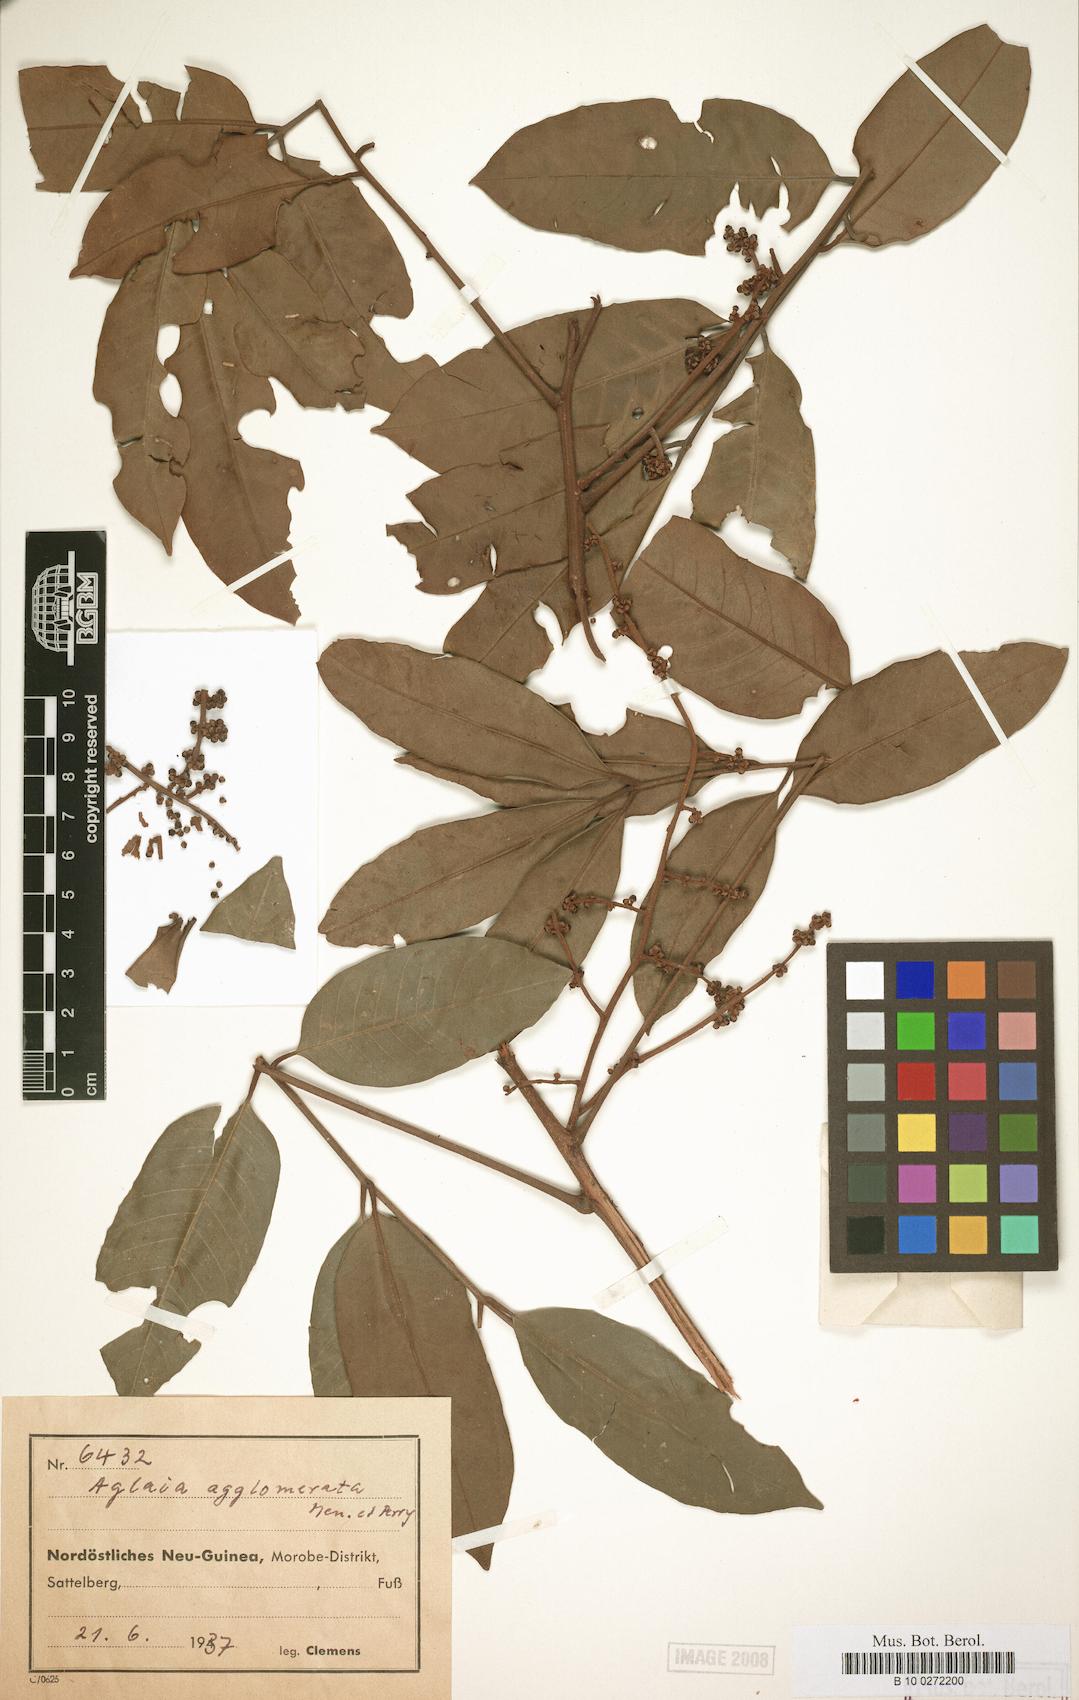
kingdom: Plantae
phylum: Tracheophyta
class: Magnoliopsida
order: Sapindales
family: Meliaceae
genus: Aglaia
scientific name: Aglaia agglomerata
